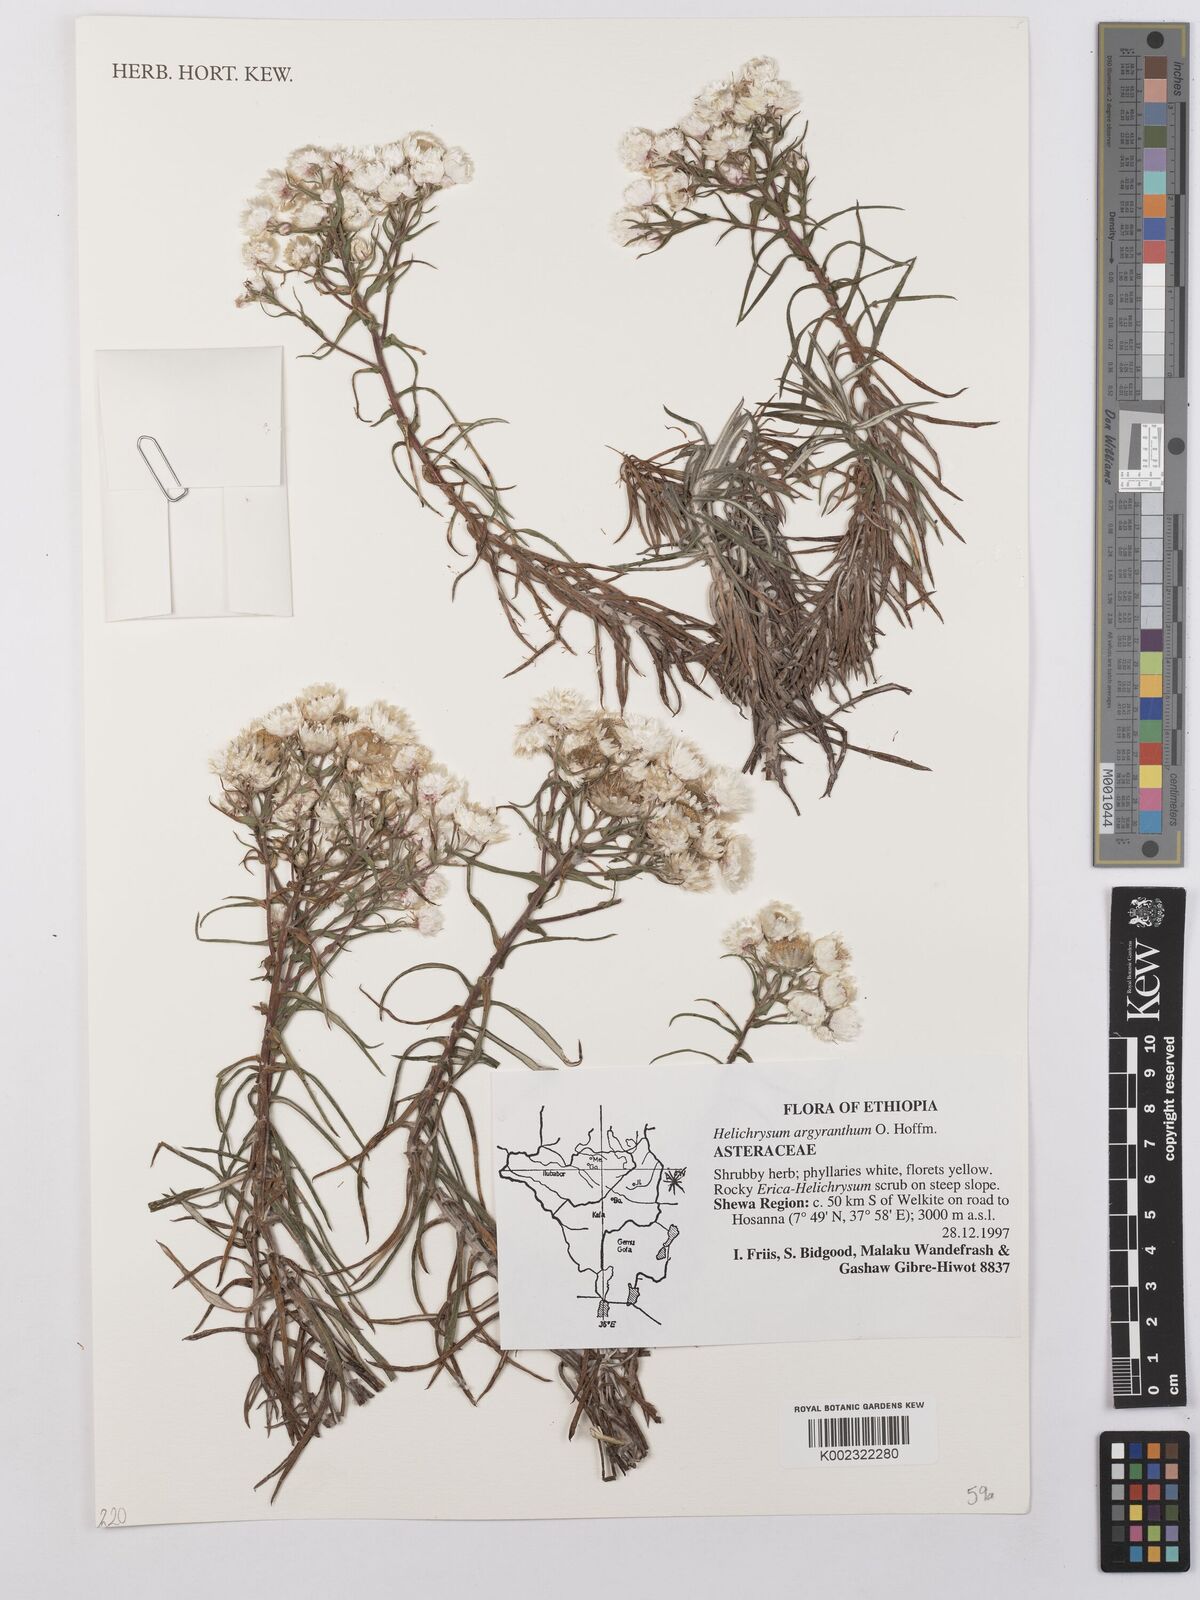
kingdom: Plantae
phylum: Tracheophyta
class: Magnoliopsida
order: Asterales
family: Asteraceae
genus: Helichrysum
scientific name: Helichrysum argyranthum
